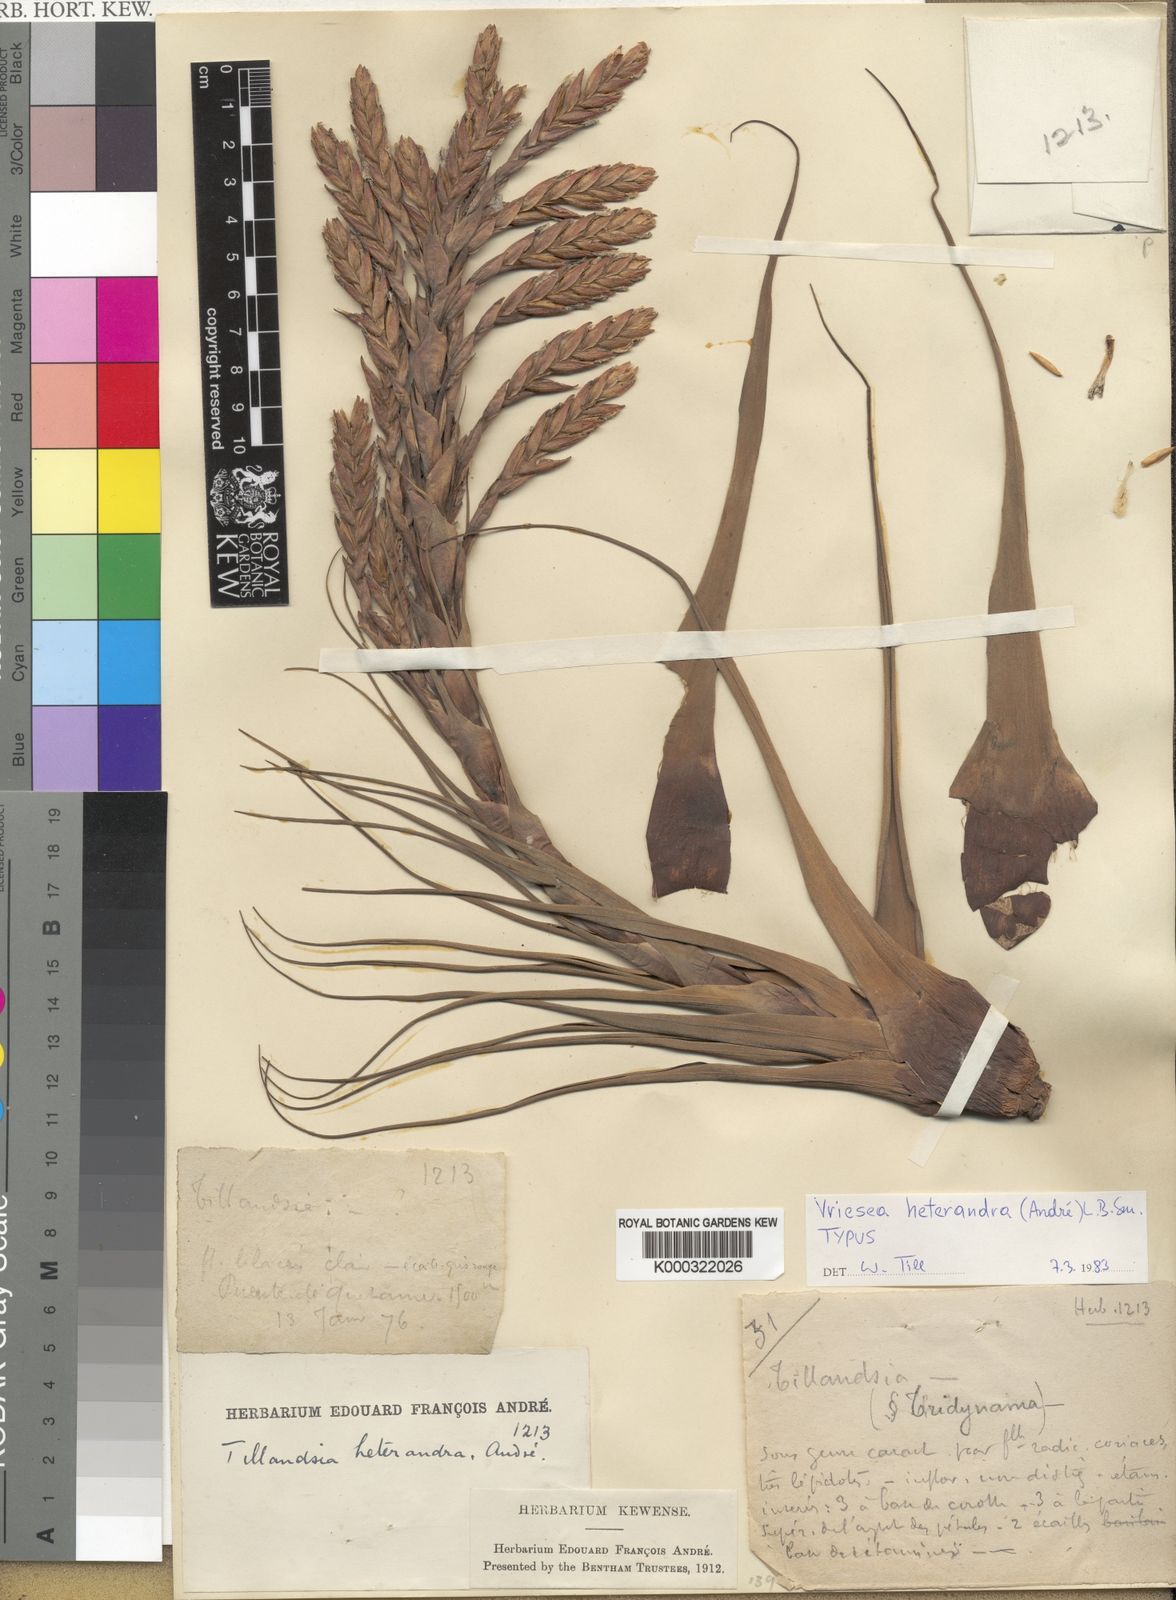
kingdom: Plantae
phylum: Tracheophyta
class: Liliopsida
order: Poales
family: Bromeliaceae
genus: Tillandsia
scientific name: Tillandsia heterandra
